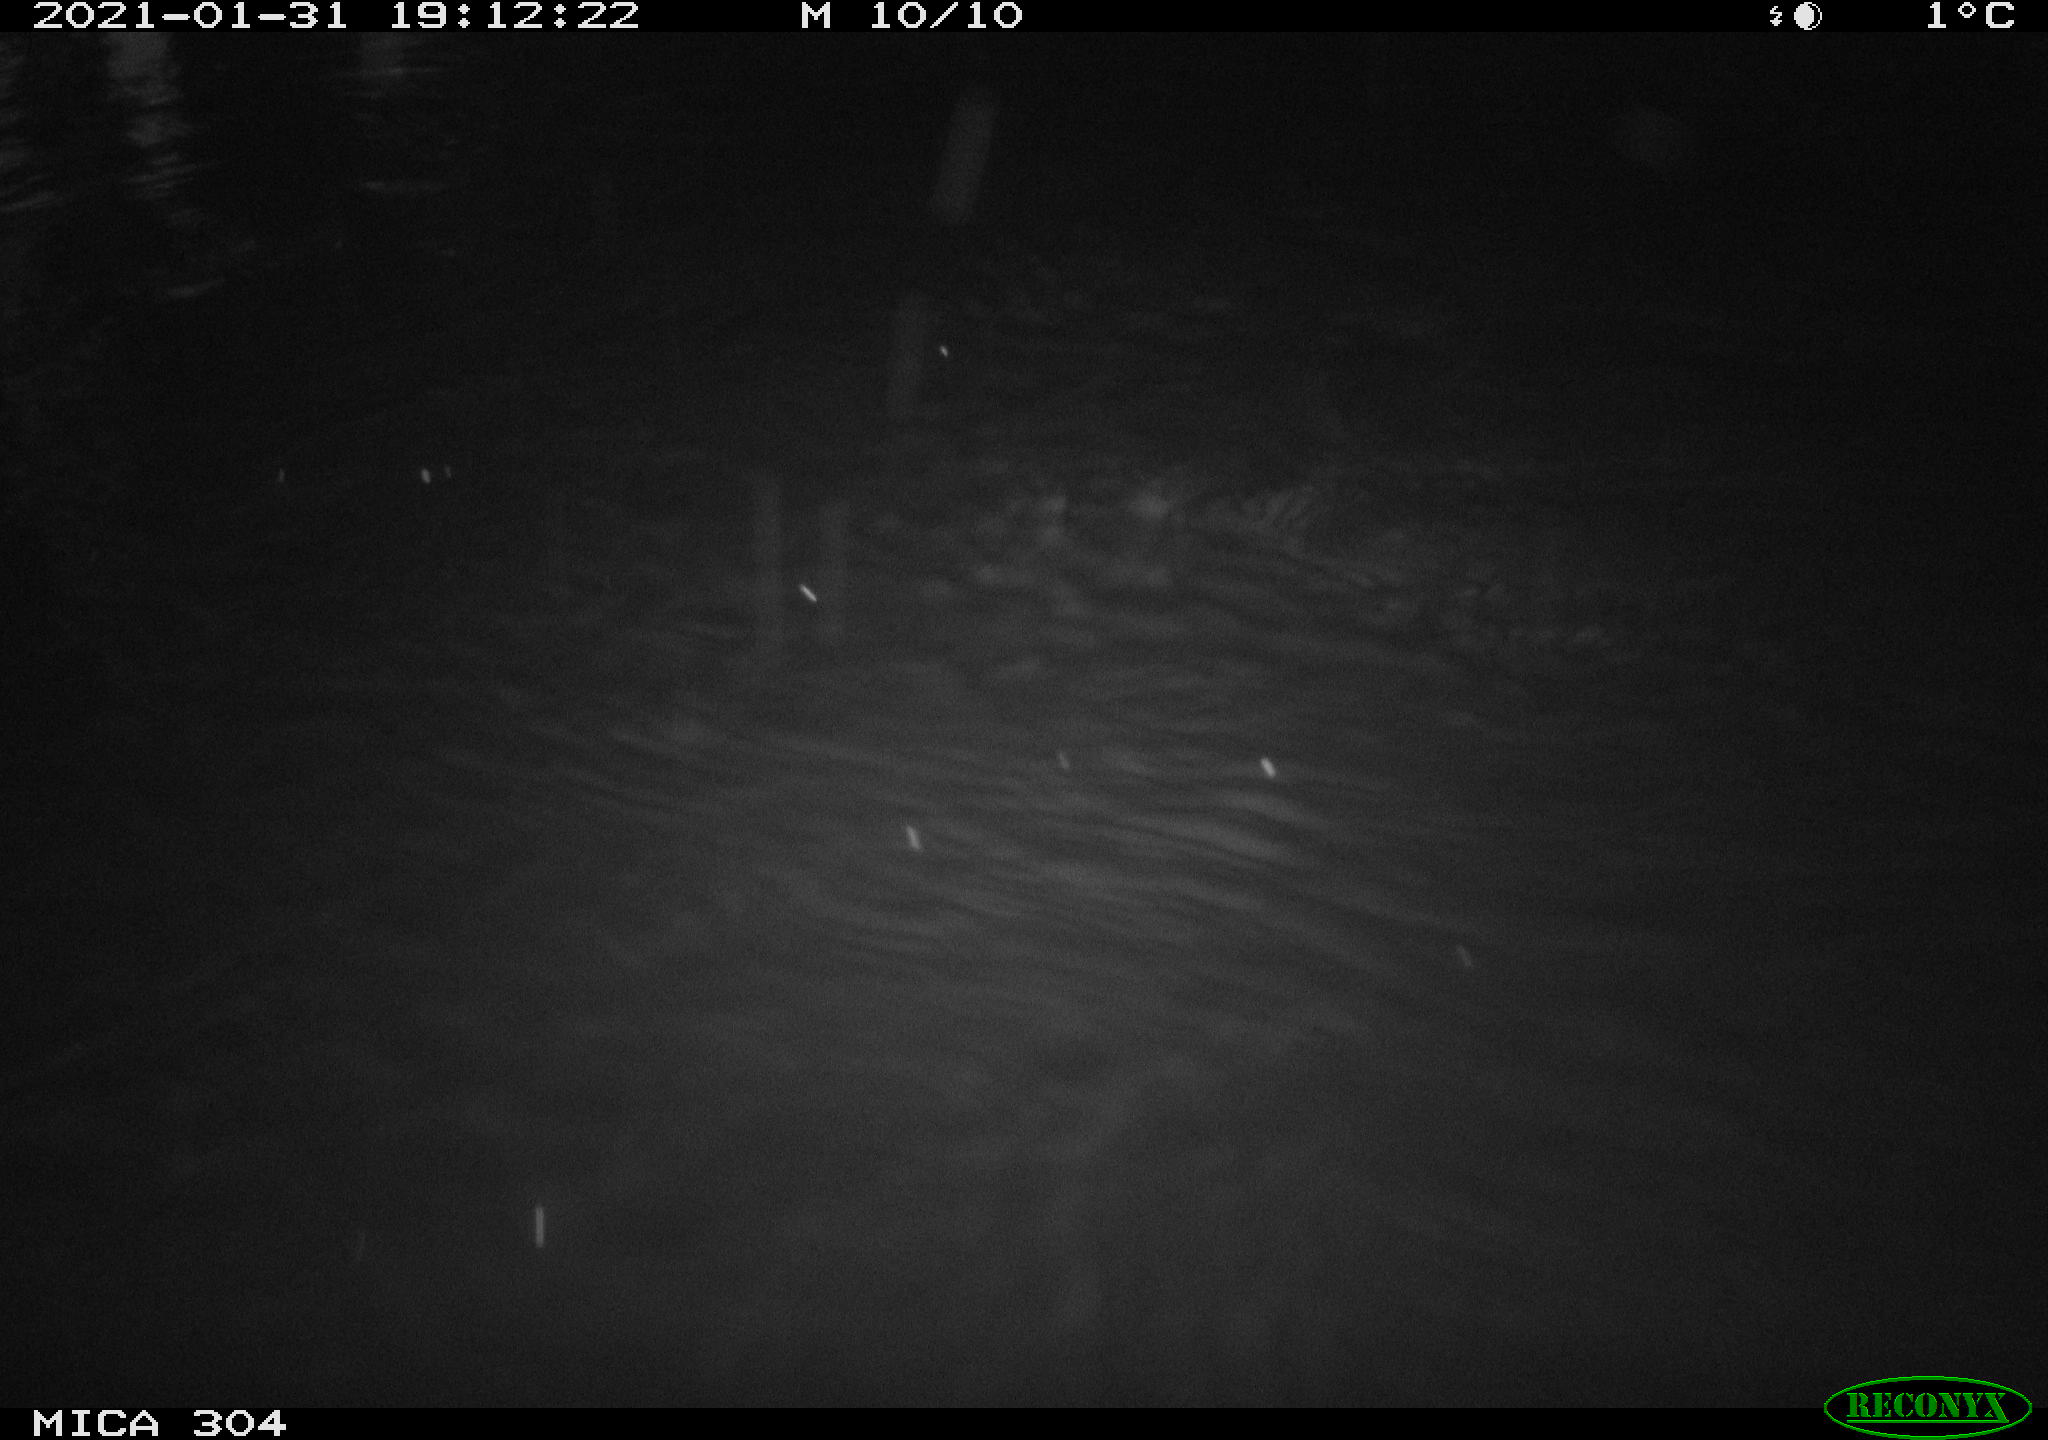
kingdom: Animalia
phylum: Chordata
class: Mammalia
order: Rodentia
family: Cricetidae
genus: Ondatra
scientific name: Ondatra zibethicus
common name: Muskrat
